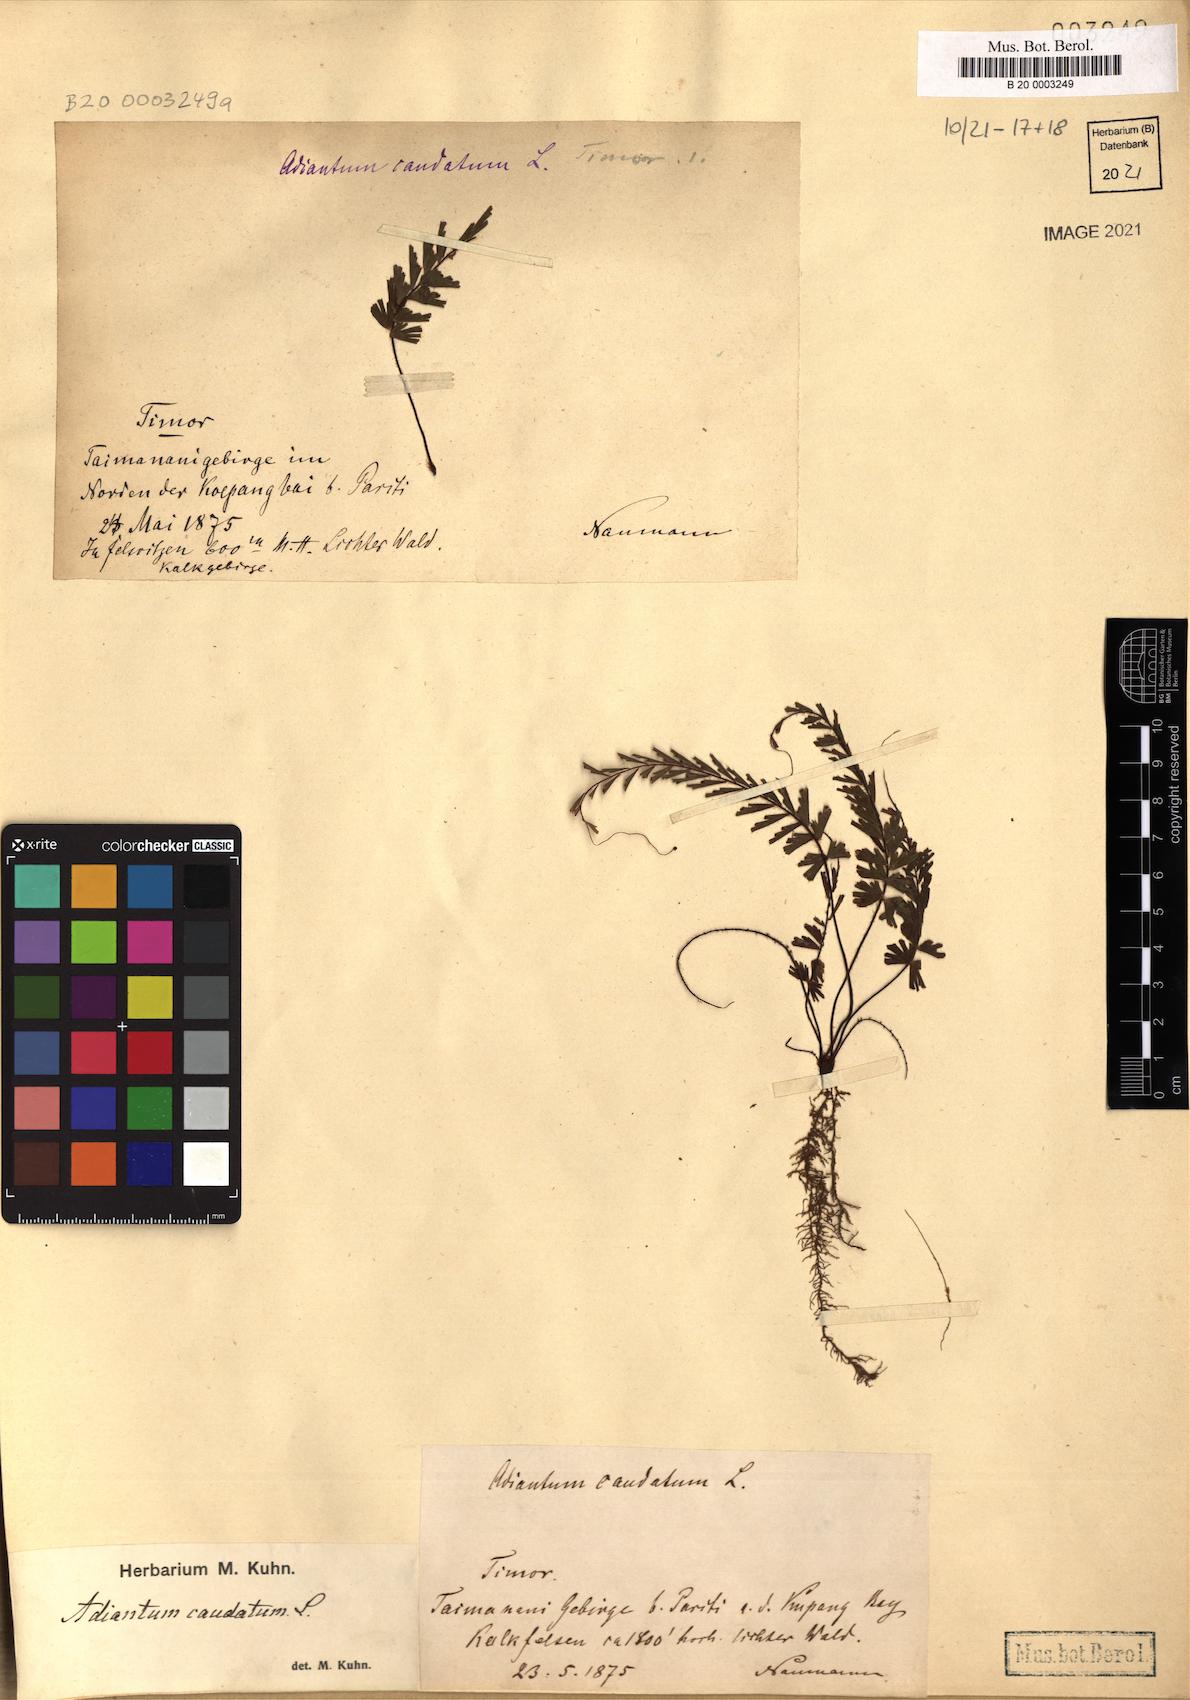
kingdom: Plantae
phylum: Tracheophyta
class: Polypodiopsida
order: Polypodiales
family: Pteridaceae
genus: Adiantum
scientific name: Adiantum caudatum
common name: Tailed maidenhair
